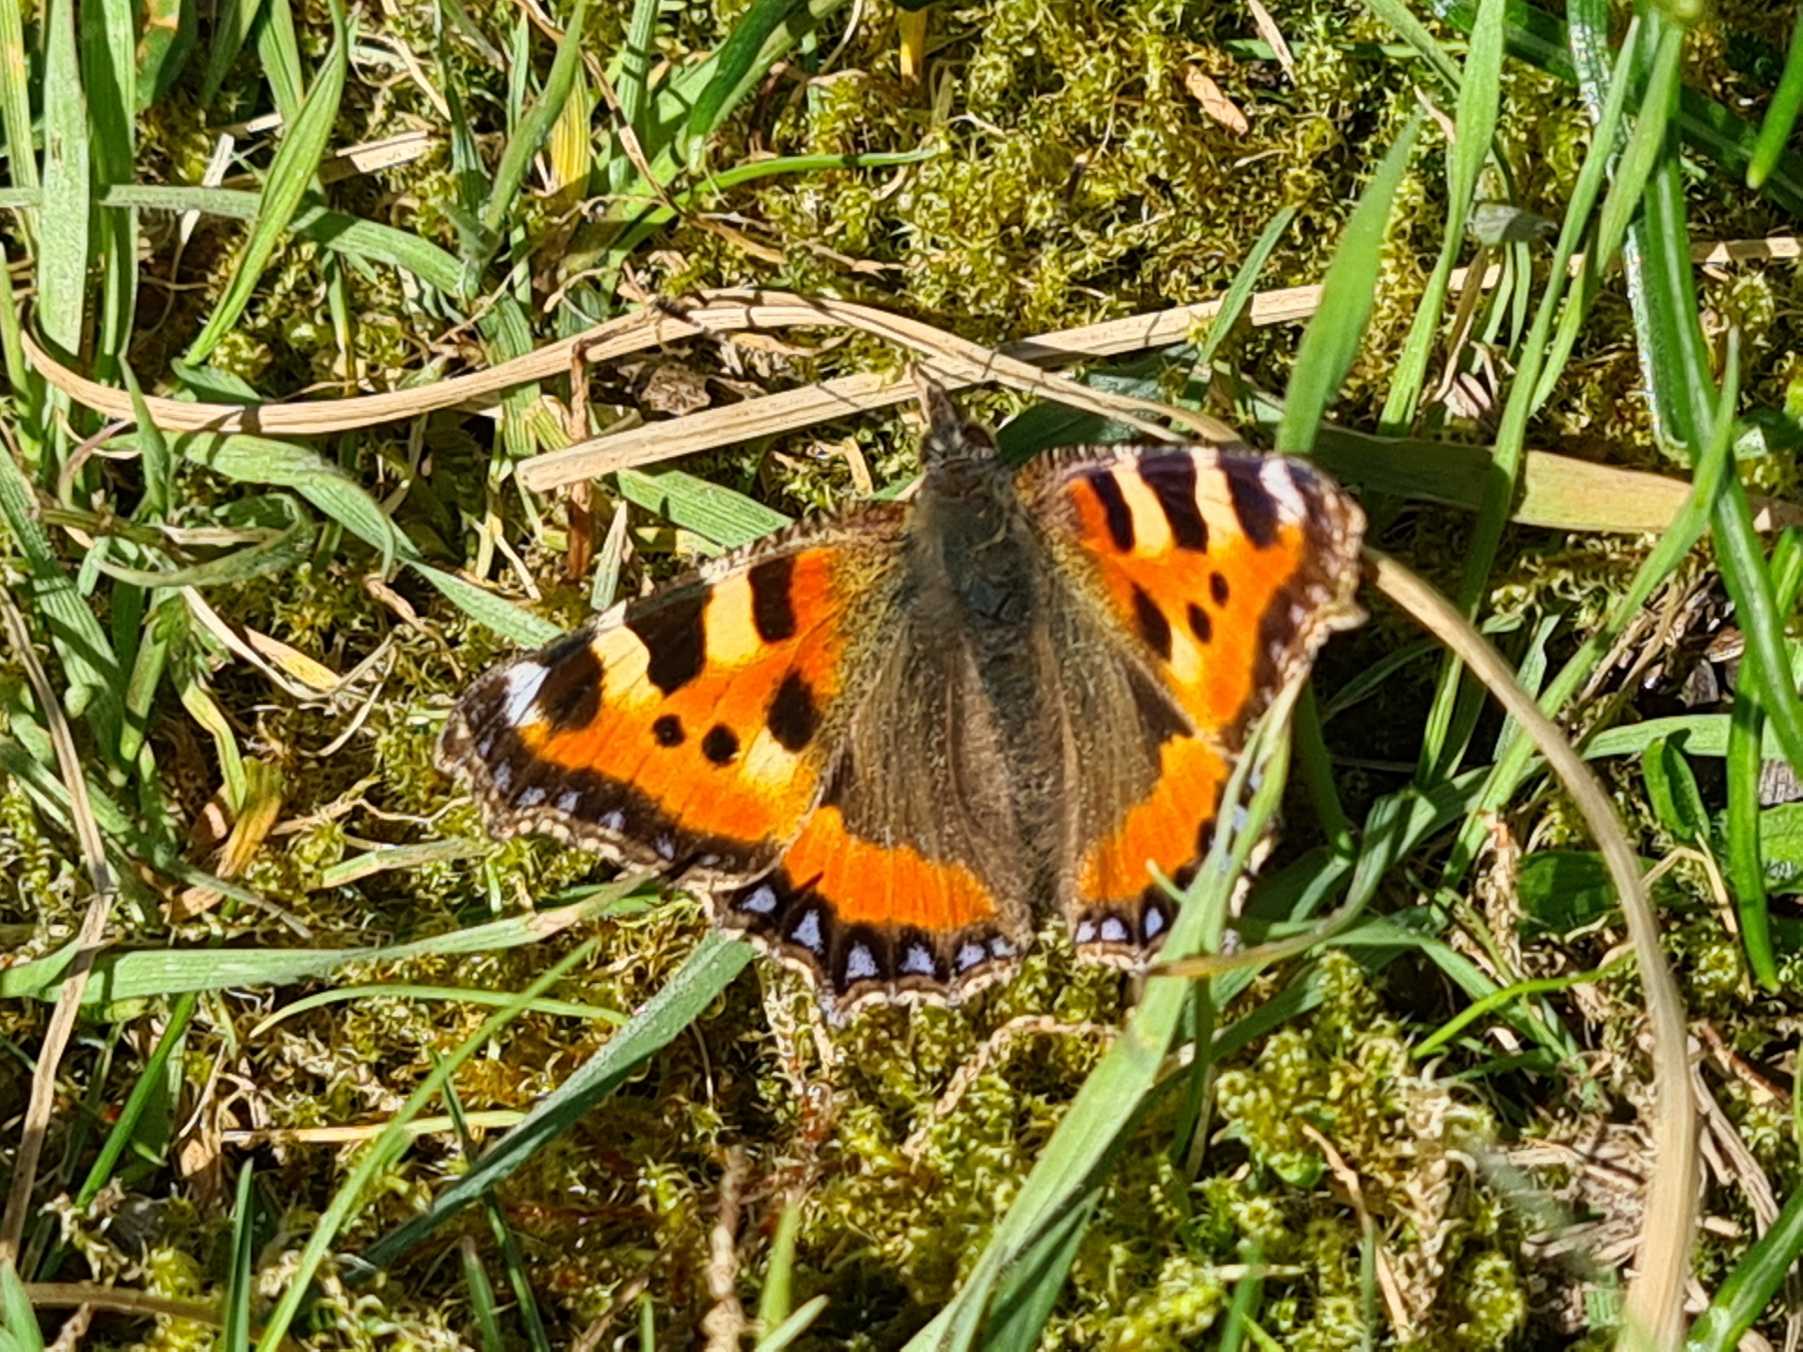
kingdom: Animalia
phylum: Arthropoda
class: Insecta
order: Lepidoptera
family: Nymphalidae
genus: Aglais
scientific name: Aglais urticae
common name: Nældens takvinge
